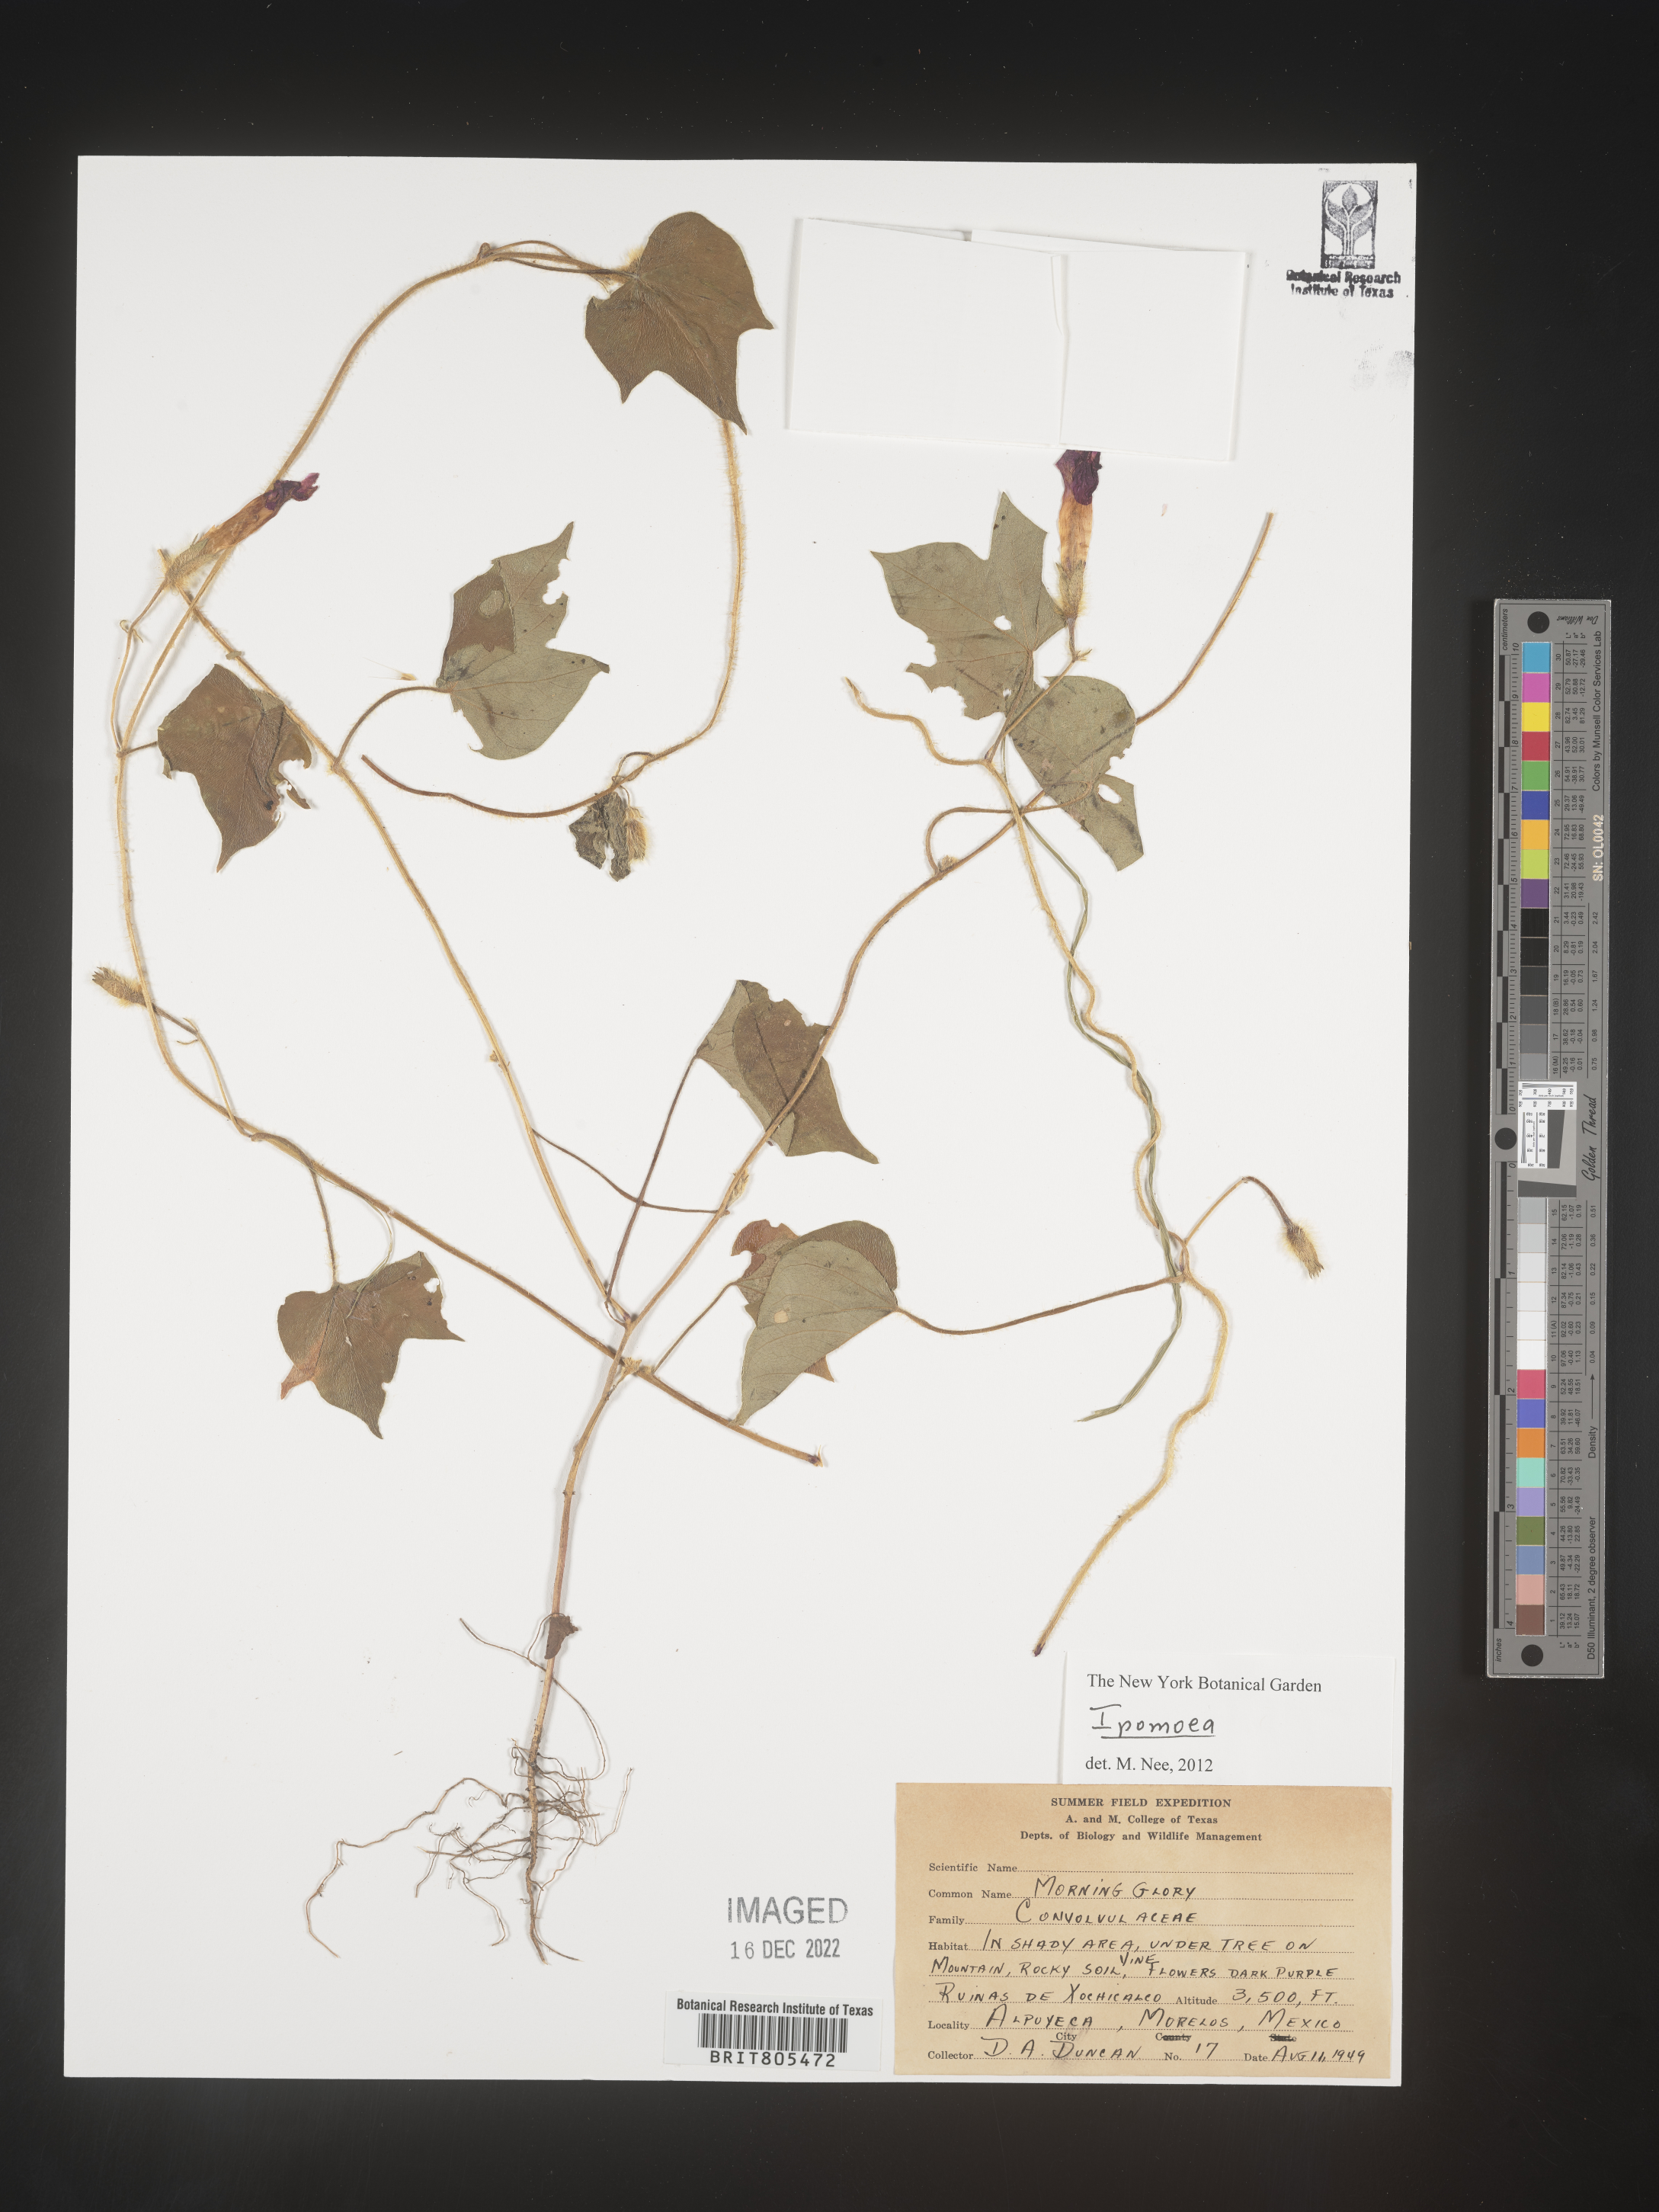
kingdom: Plantae
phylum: Tracheophyta
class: Magnoliopsida
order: Solanales
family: Convolvulaceae
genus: Ipomoea
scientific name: Ipomoea
